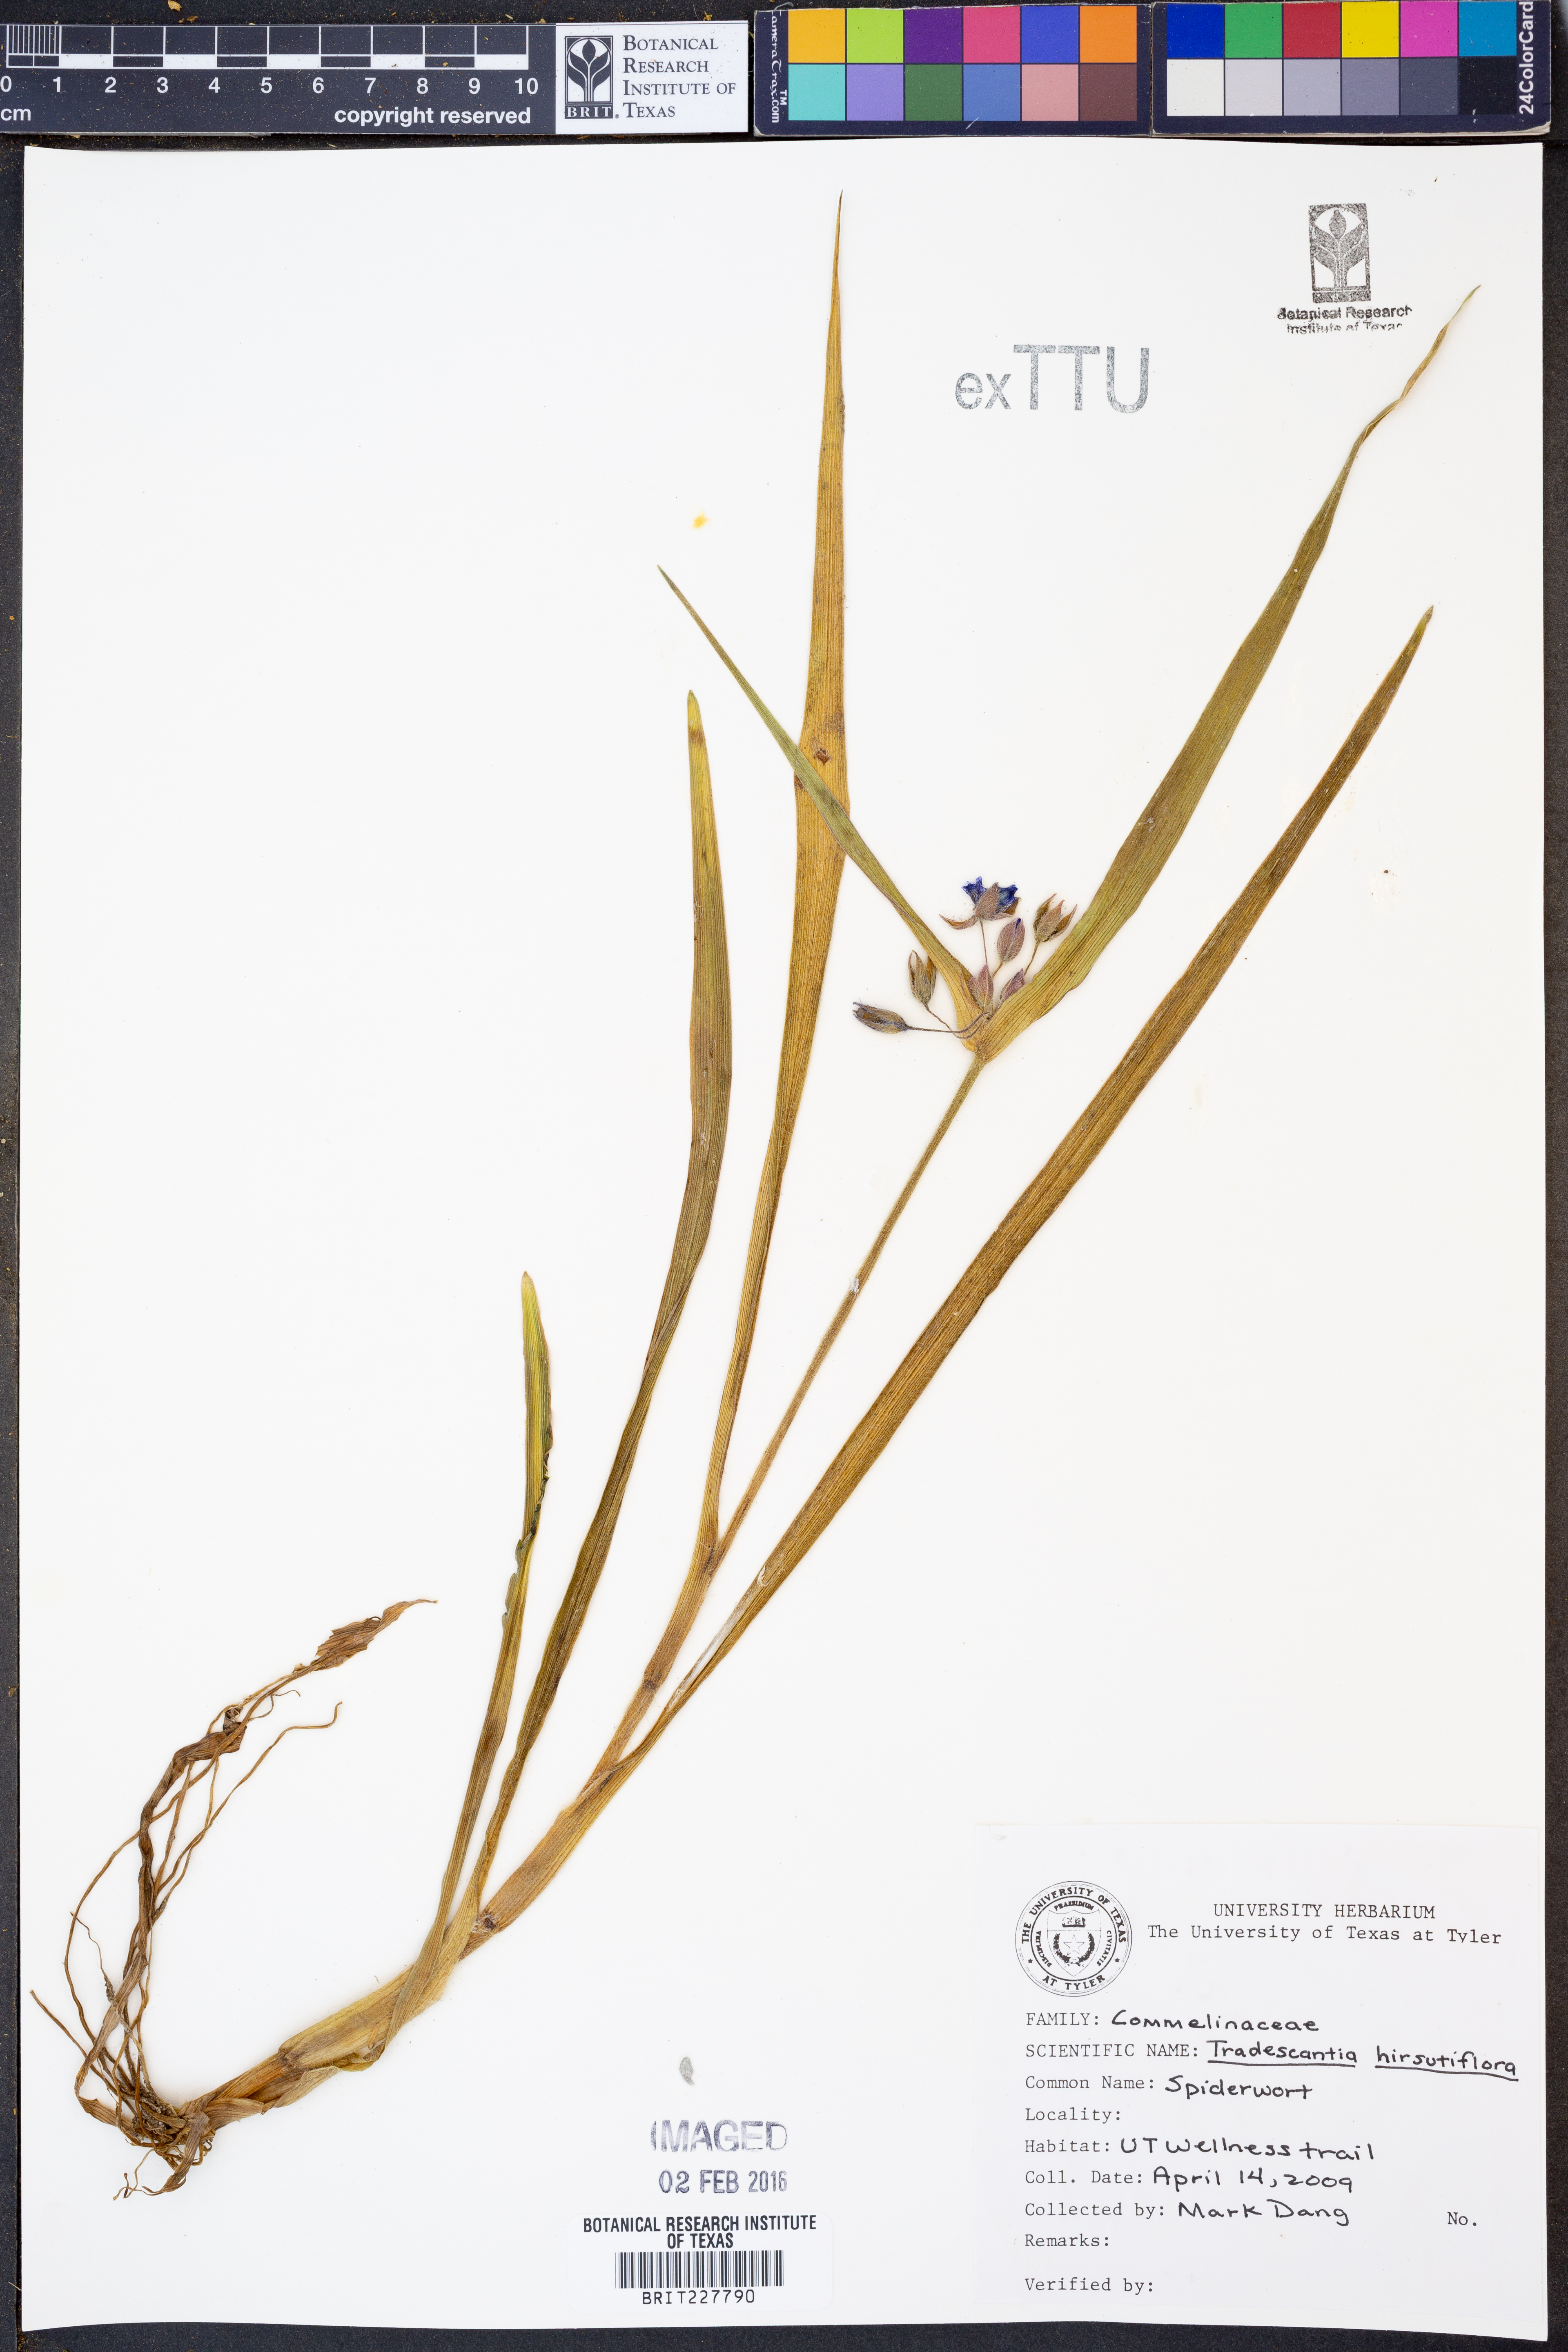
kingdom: Plantae
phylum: Tracheophyta
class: Liliopsida
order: Commelinales
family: Commelinaceae
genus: Tradescantia
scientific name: Tradescantia hirsutiflora
